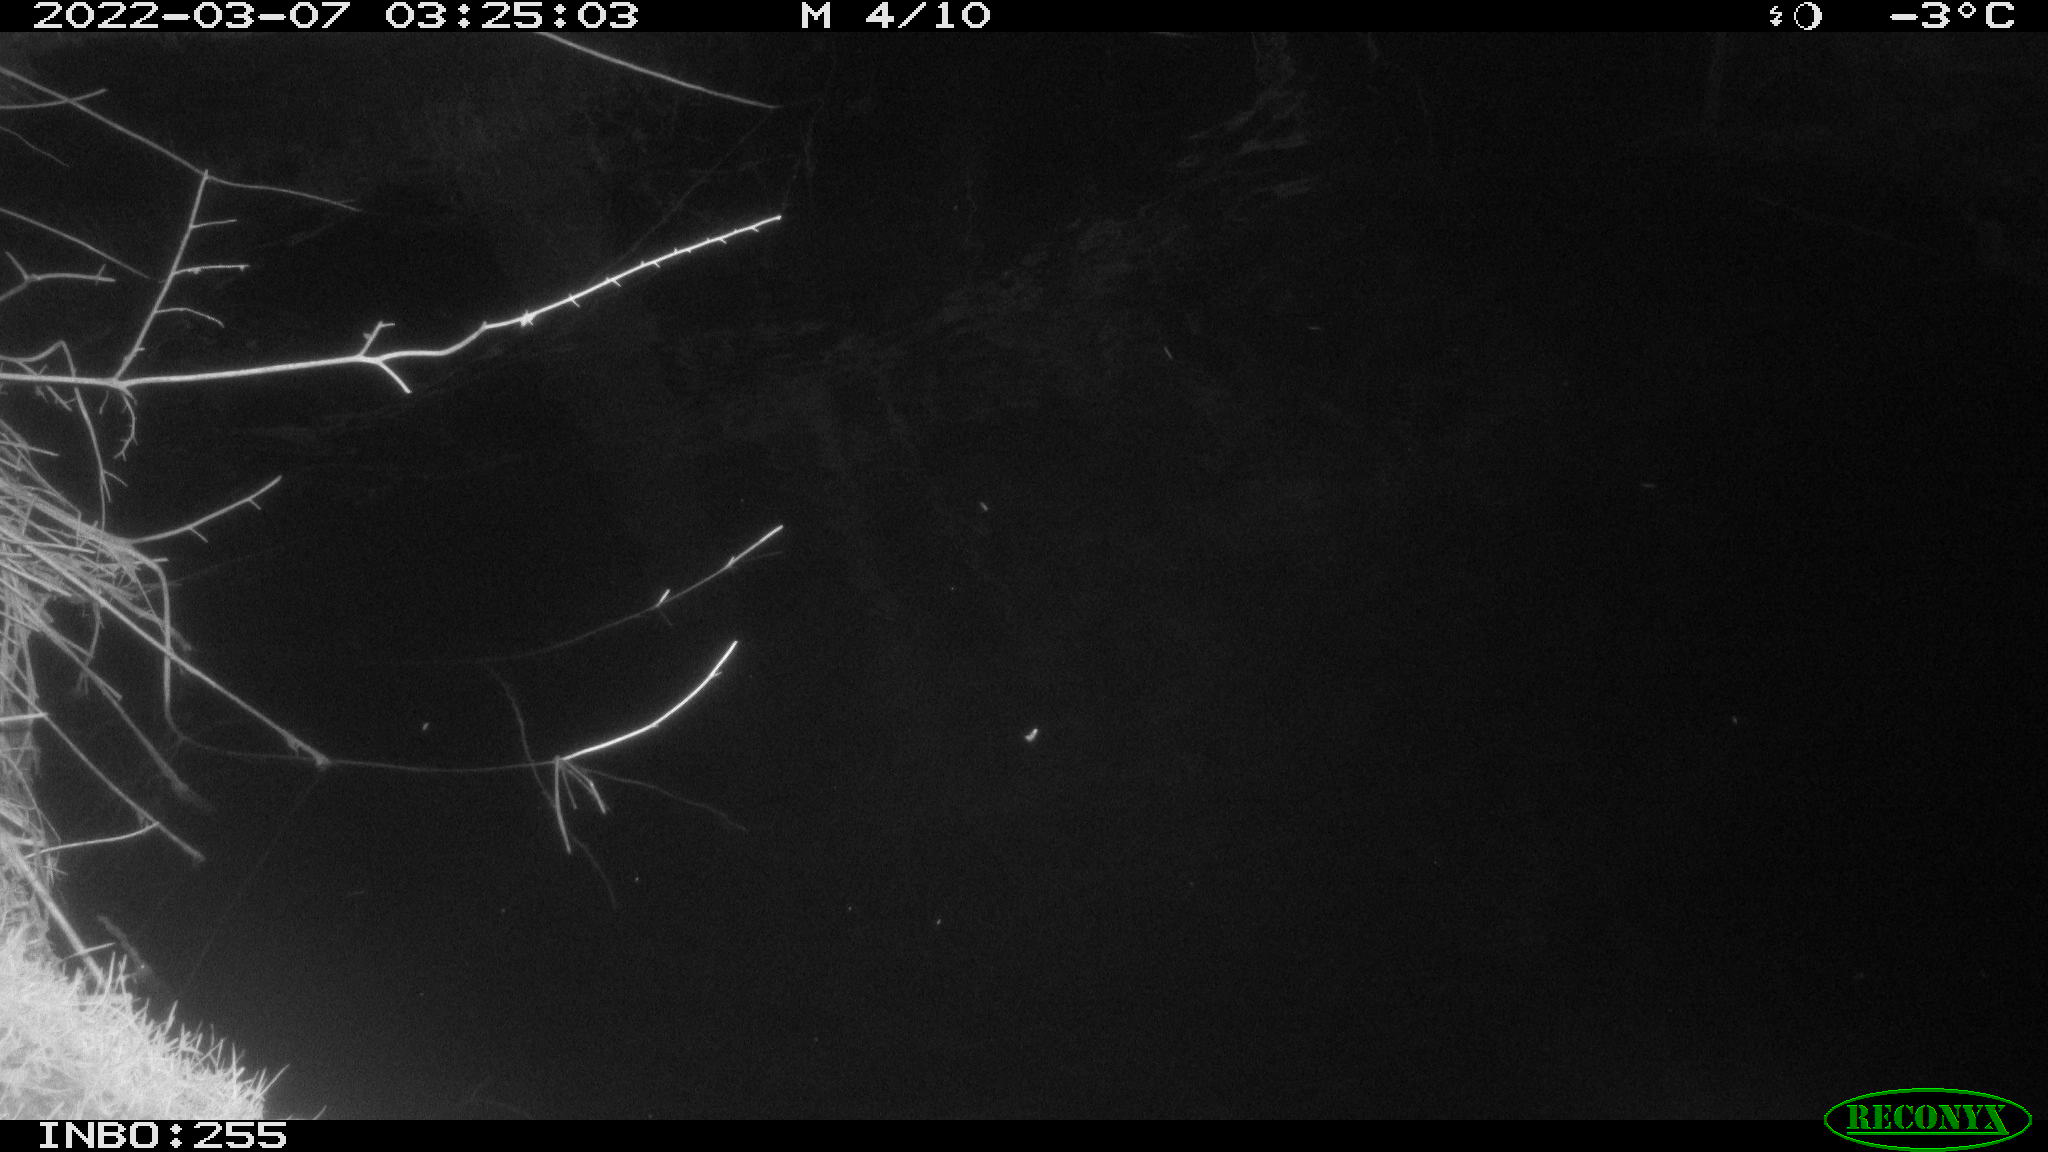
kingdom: Animalia
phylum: Chordata
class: Aves
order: Anseriformes
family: Anatidae
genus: Anas
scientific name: Anas platyrhynchos
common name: Mallard
